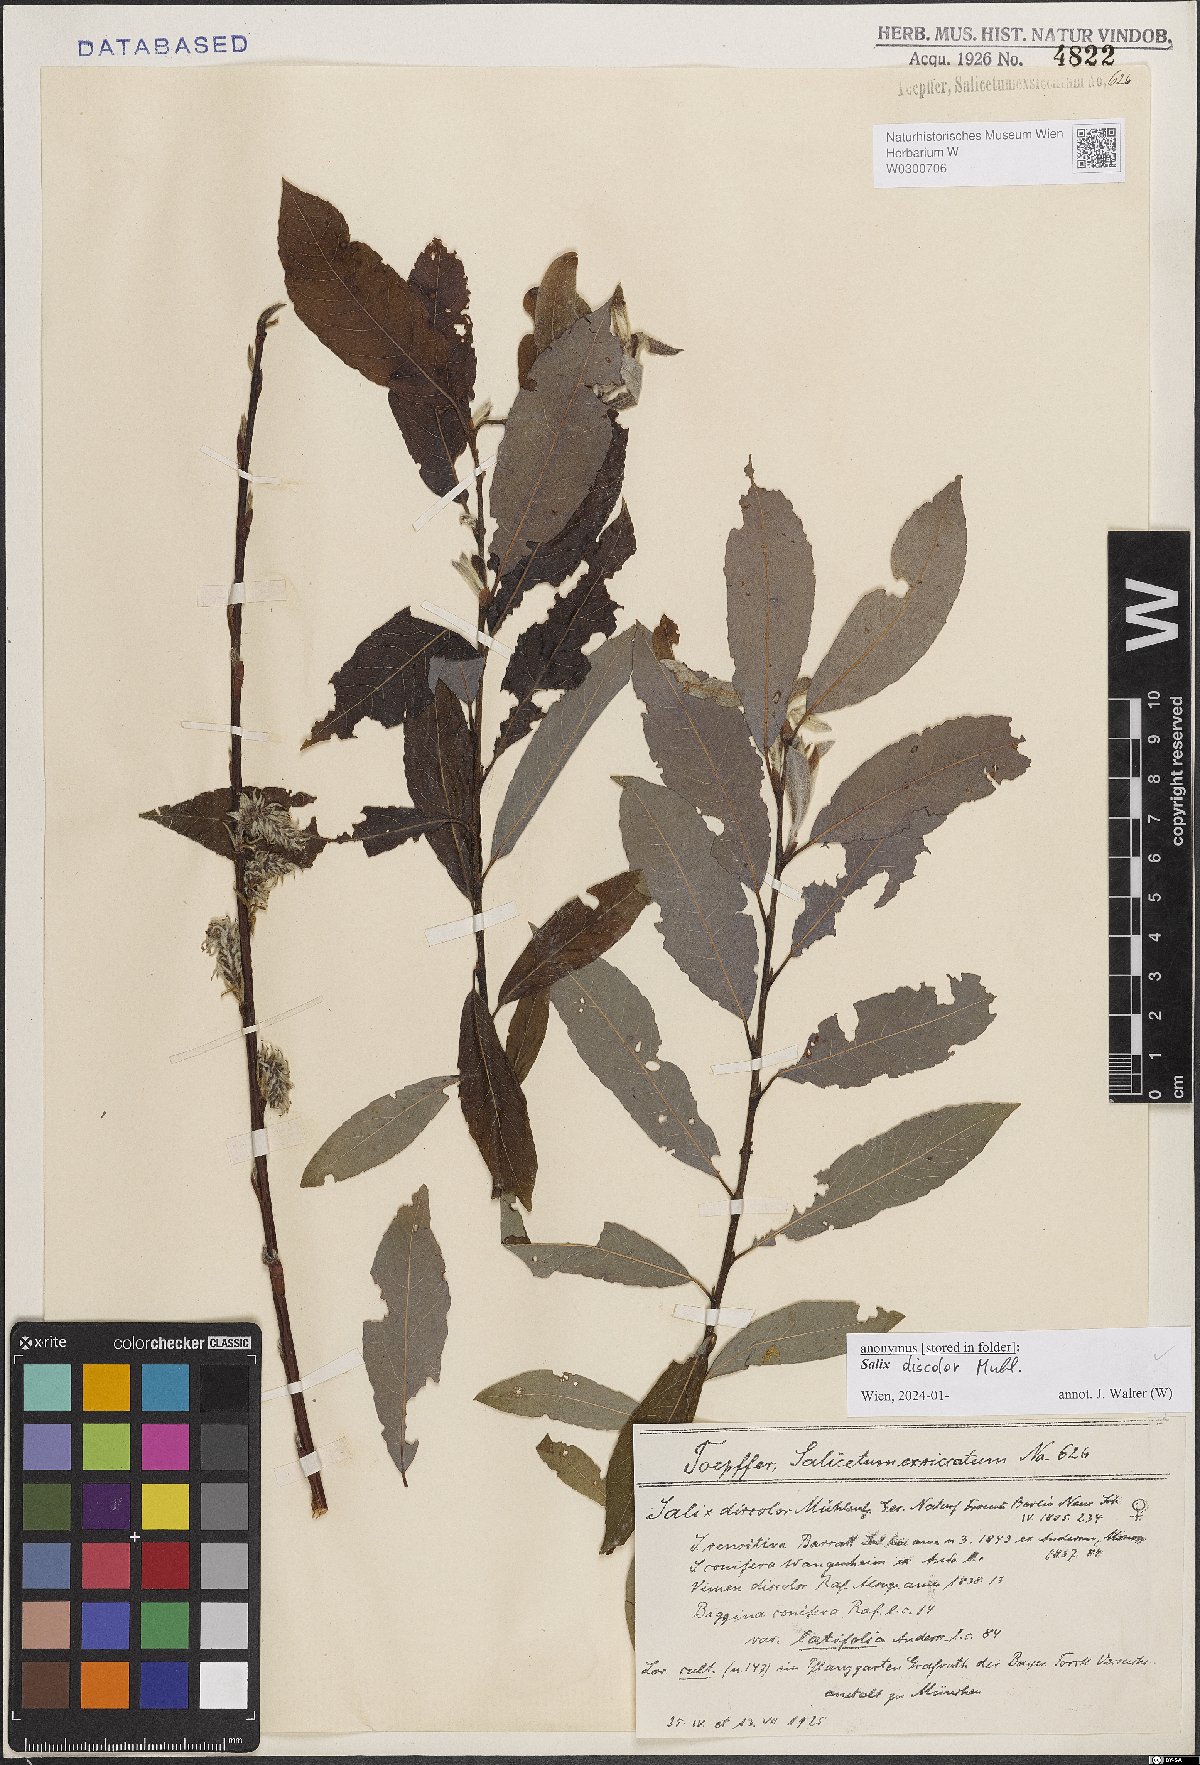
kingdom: Plantae
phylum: Tracheophyta
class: Magnoliopsida
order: Malpighiales
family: Salicaceae
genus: Salix
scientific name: Salix discolor
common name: Glaucous willow
